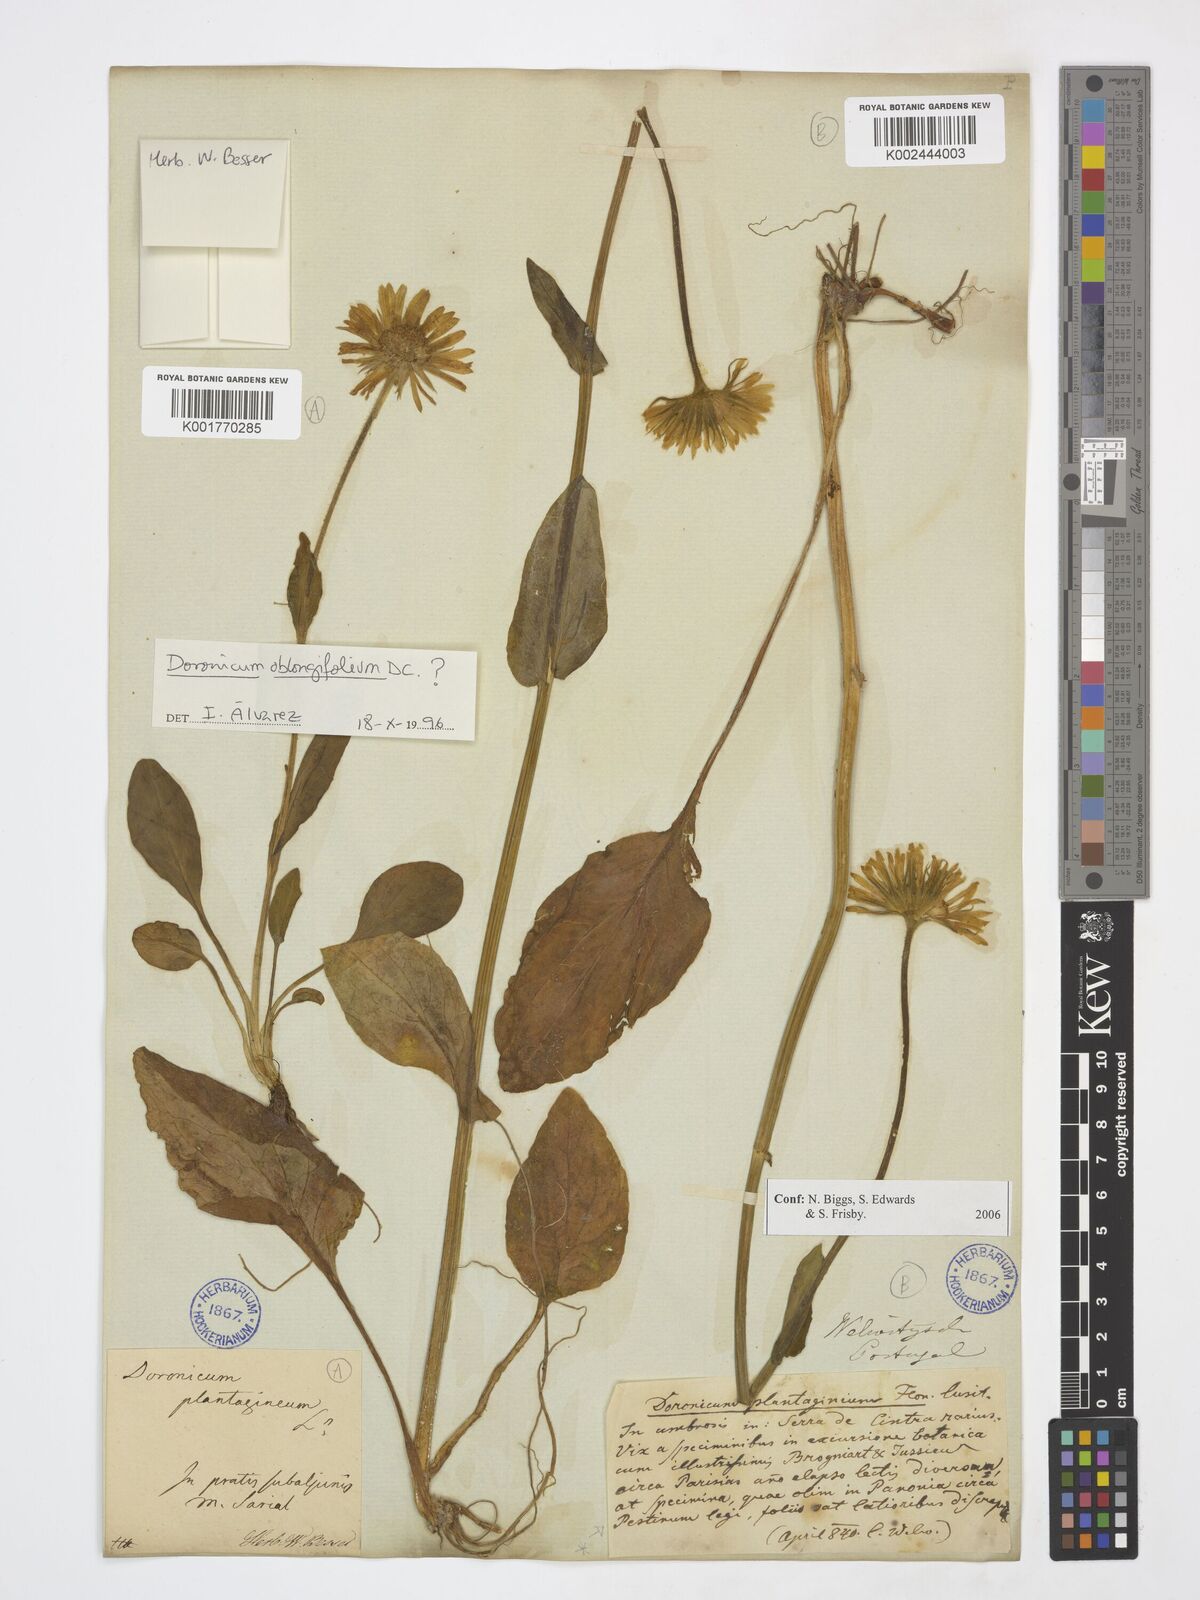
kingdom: Plantae
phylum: Tracheophyta
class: Magnoliopsida
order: Asterales
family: Asteraceae
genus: Doronicum
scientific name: Doronicum oblongifolium
